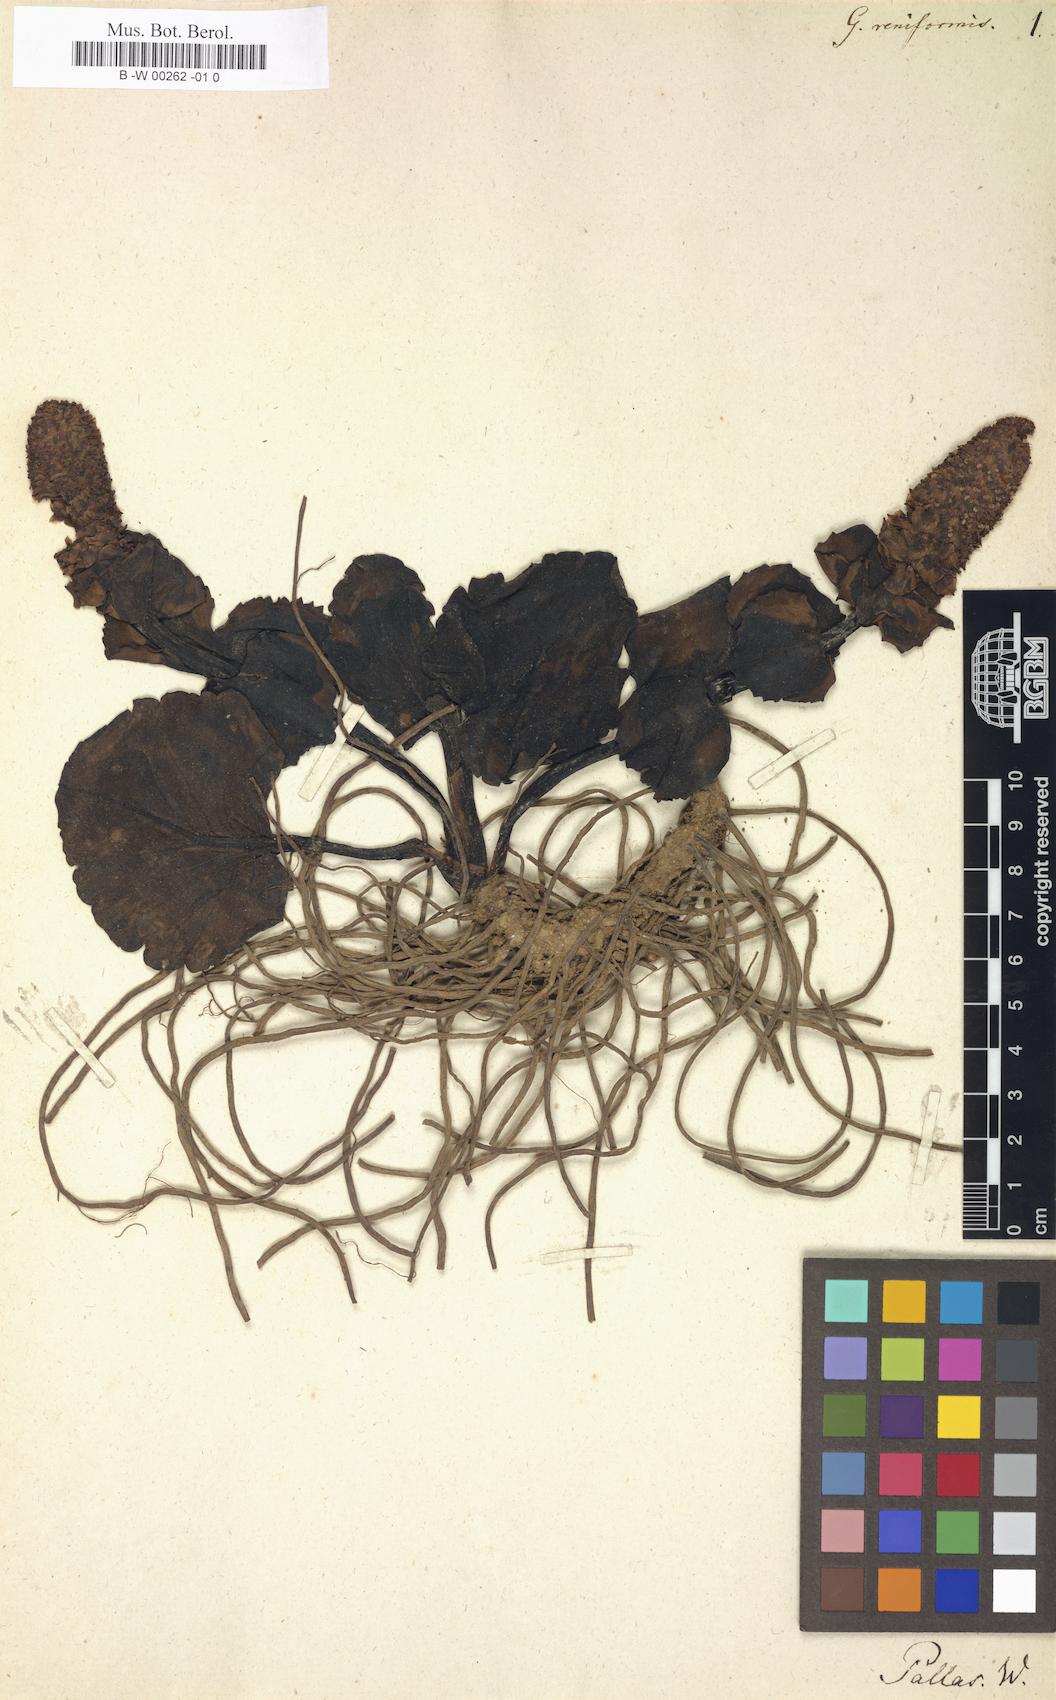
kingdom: Plantae
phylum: Tracheophyta
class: Magnoliopsida
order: Lamiales
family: Plantaginaceae
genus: Lagotis
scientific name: Lagotis glauca
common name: Glaucous weaselsnout
